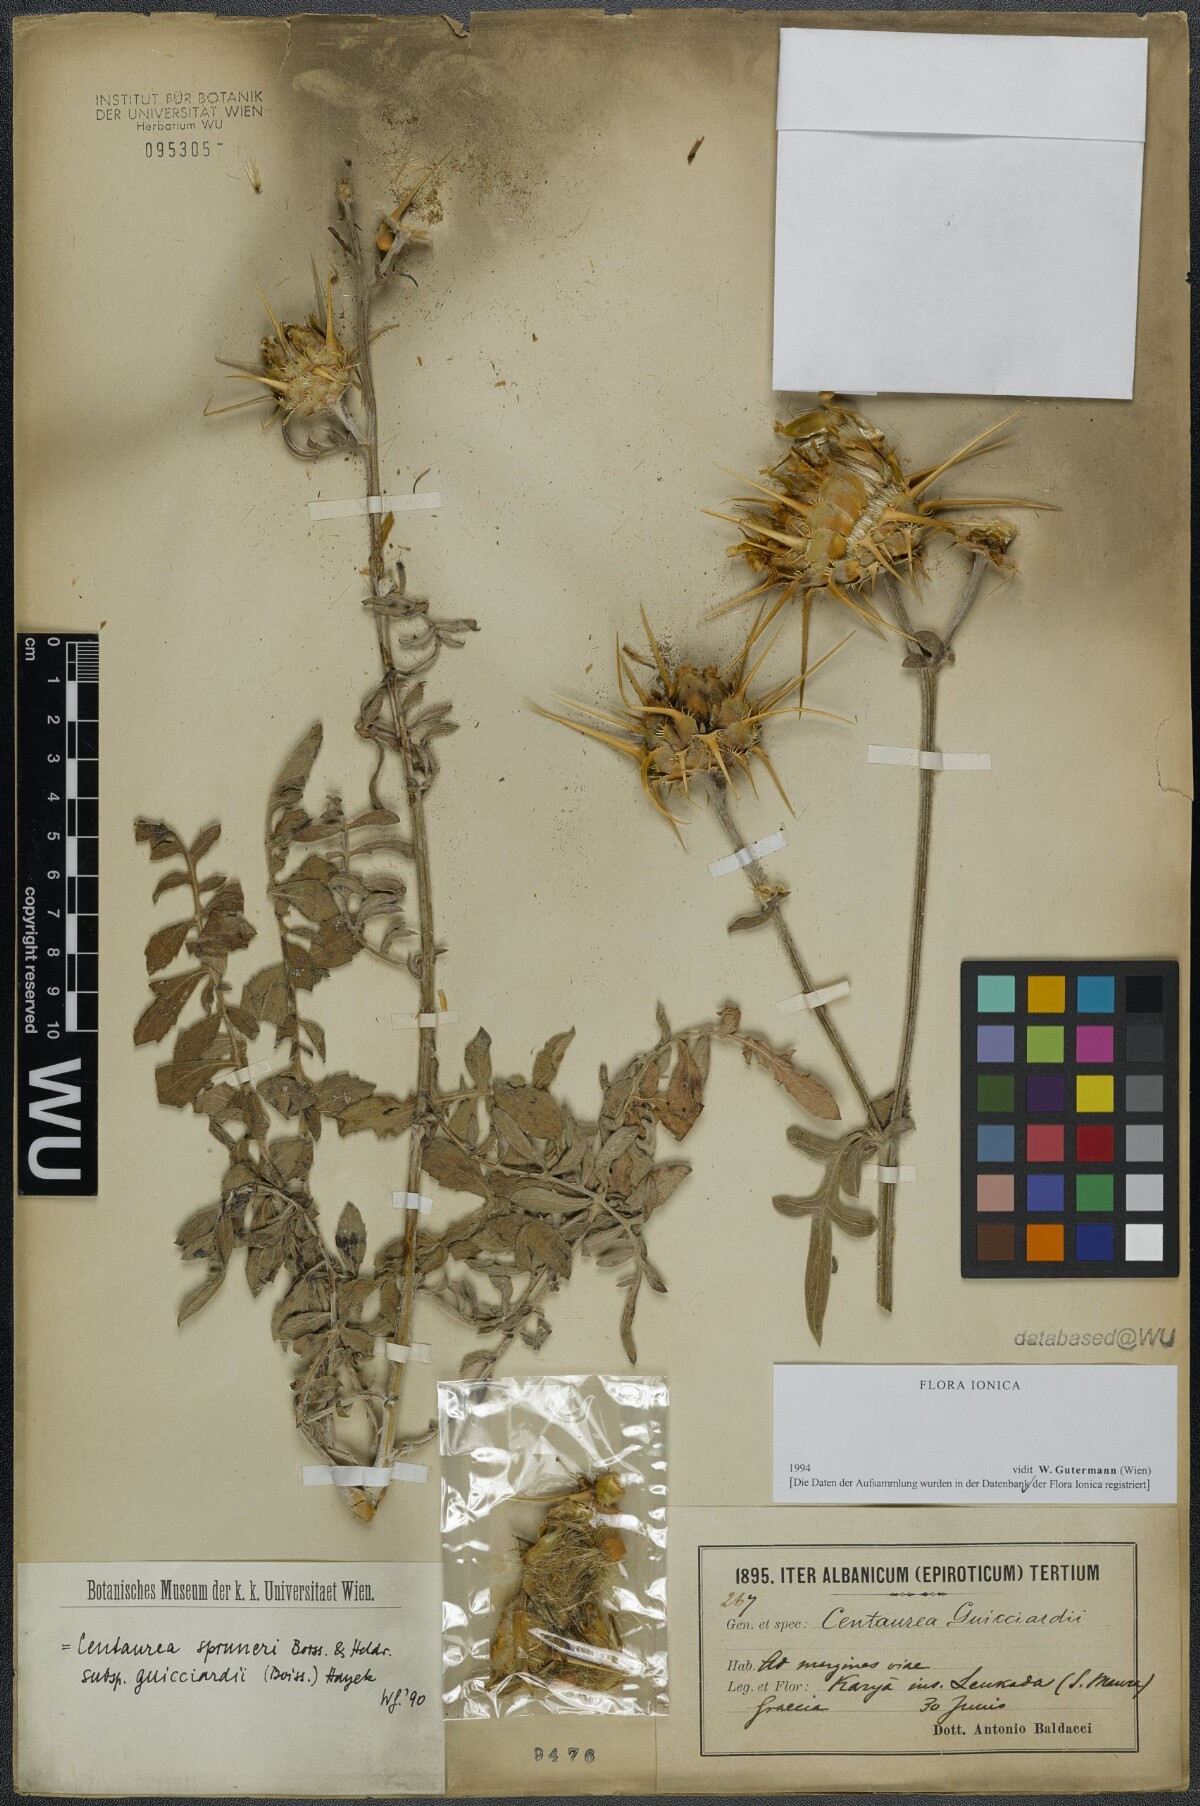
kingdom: Plantae
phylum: Tracheophyta
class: Magnoliopsida
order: Asterales
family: Asteraceae
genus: Centaurea
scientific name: Centaurea spruneri
